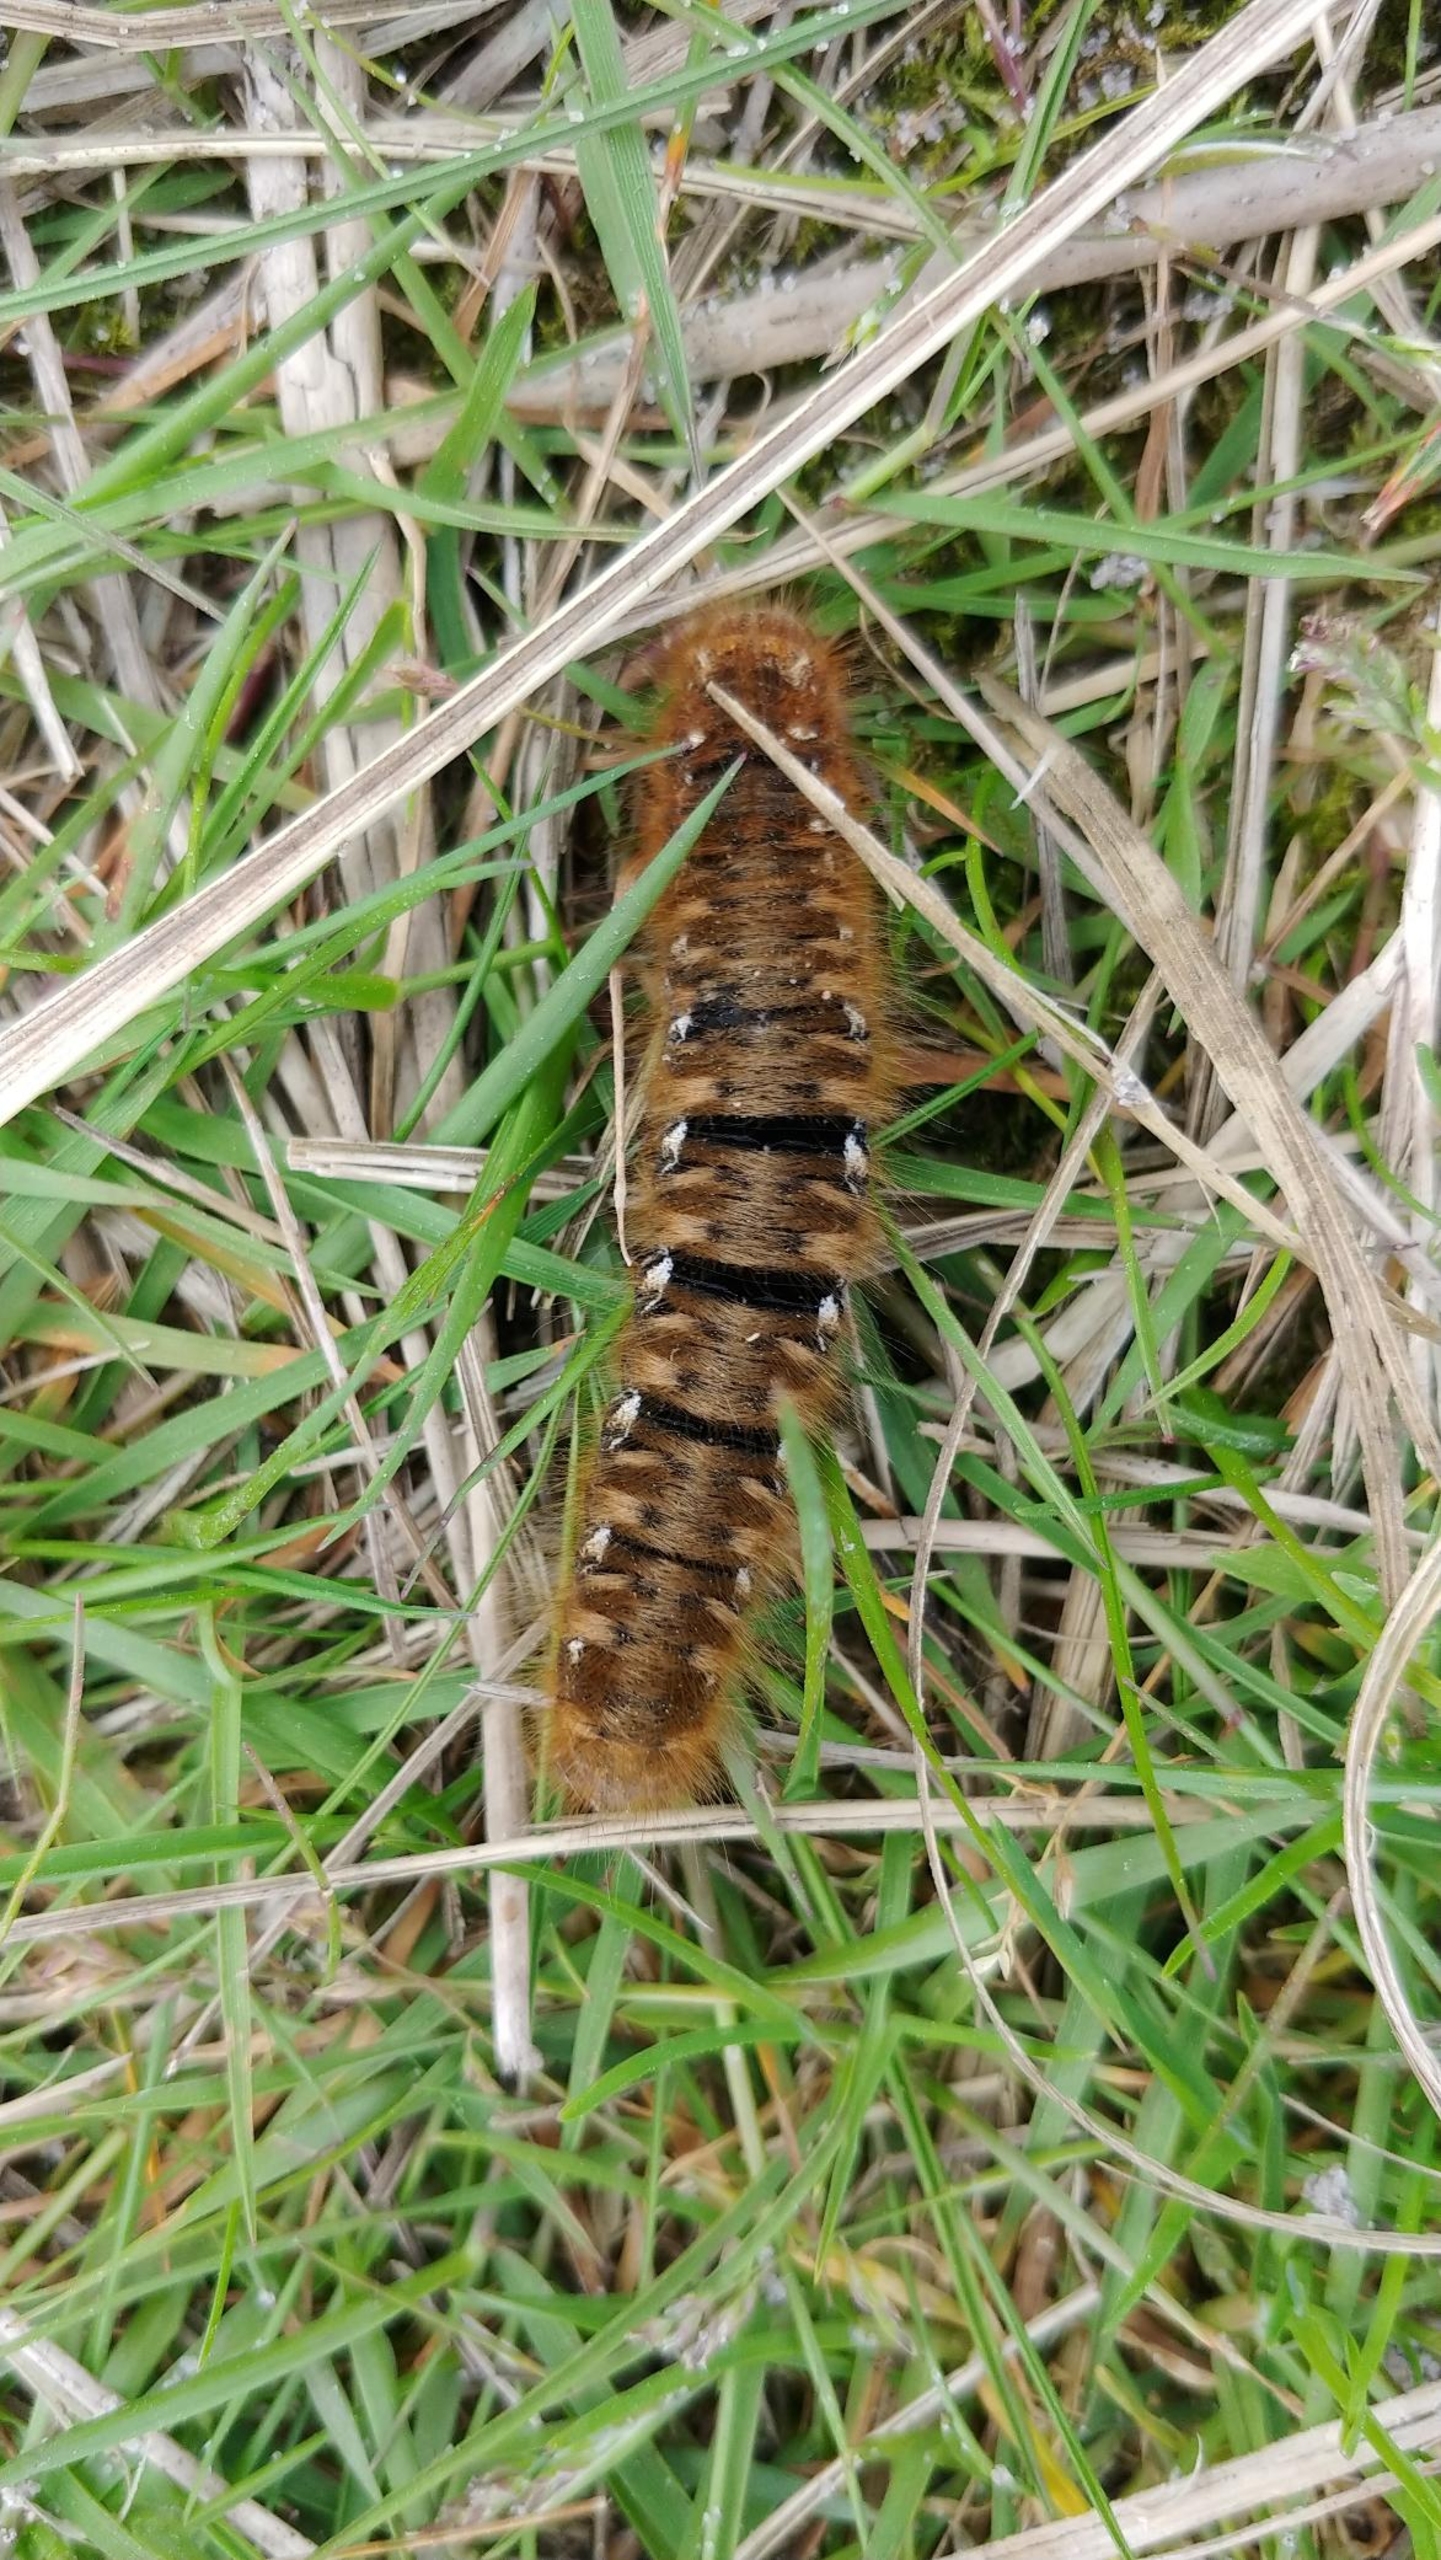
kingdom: Animalia
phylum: Arthropoda
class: Insecta
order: Lepidoptera
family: Lasiocampidae
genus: Lasiocampa
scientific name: Lasiocampa quercus
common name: Egespinder
